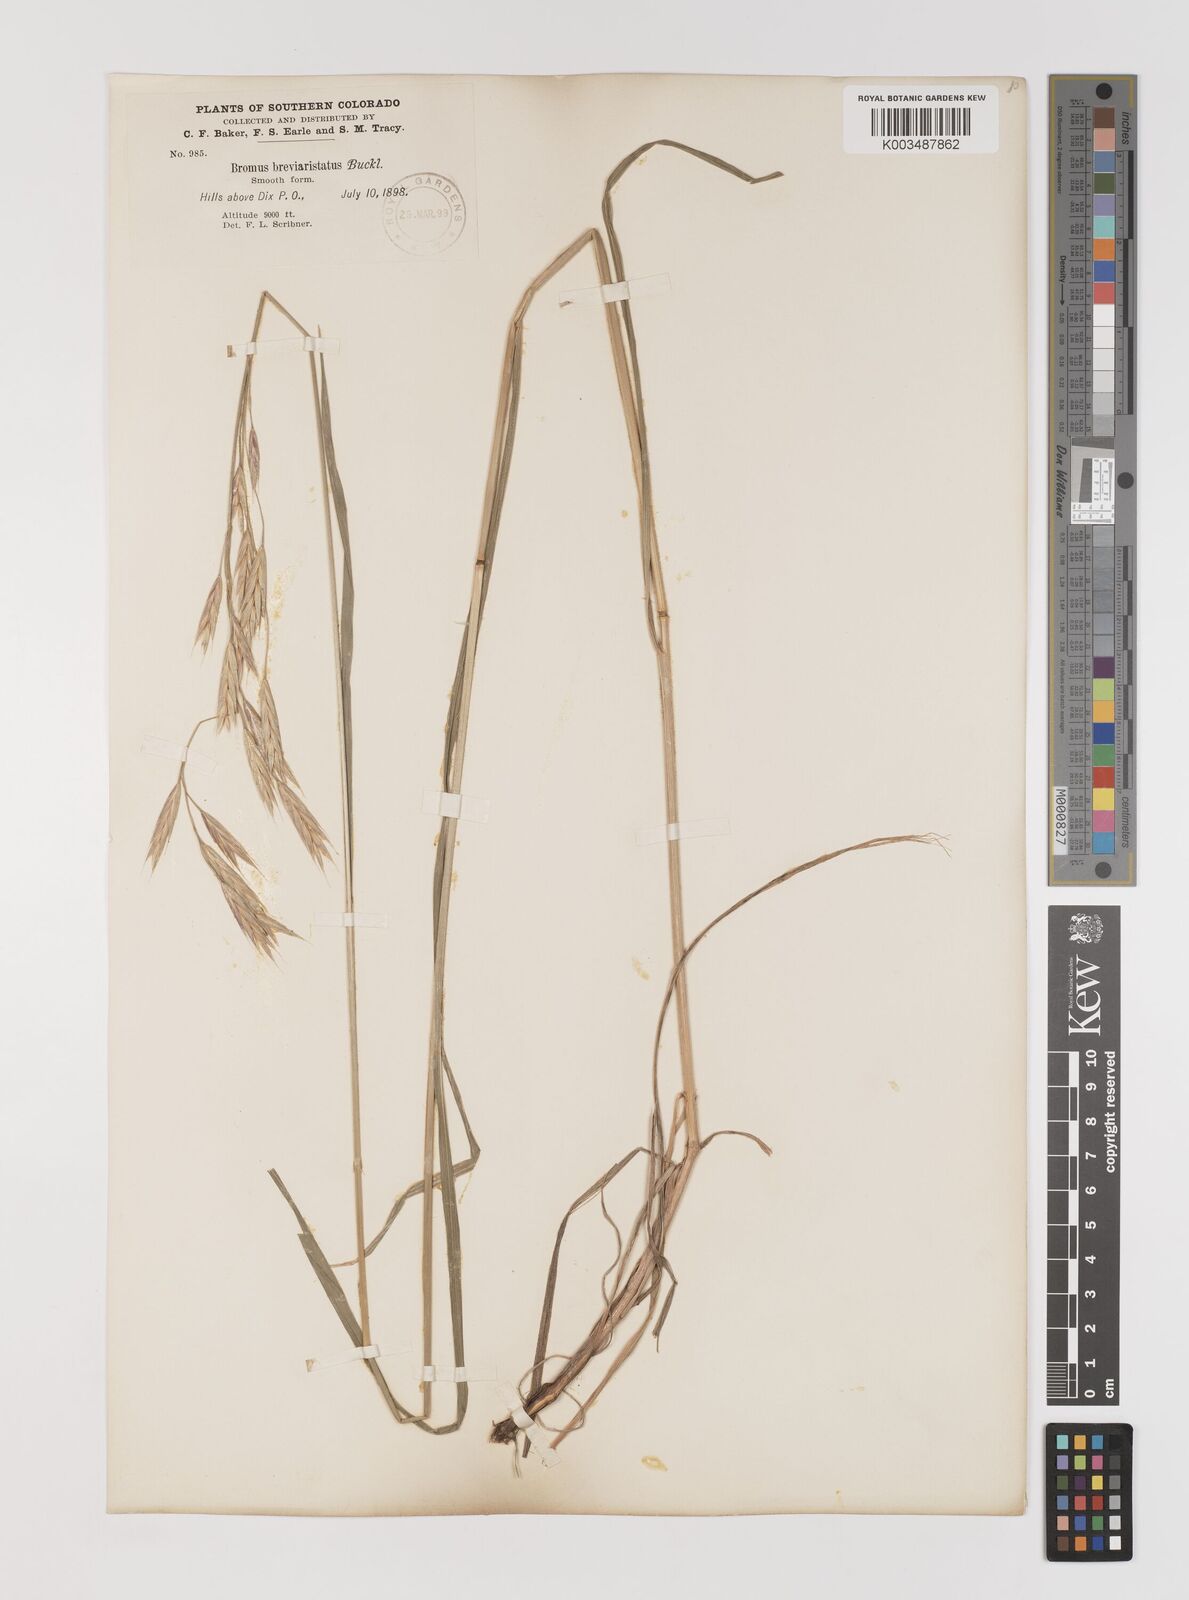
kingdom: Plantae
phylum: Tracheophyta
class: Liliopsida
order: Poales
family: Poaceae
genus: Bromus
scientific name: Bromus catharticus
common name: Rescuegrass
